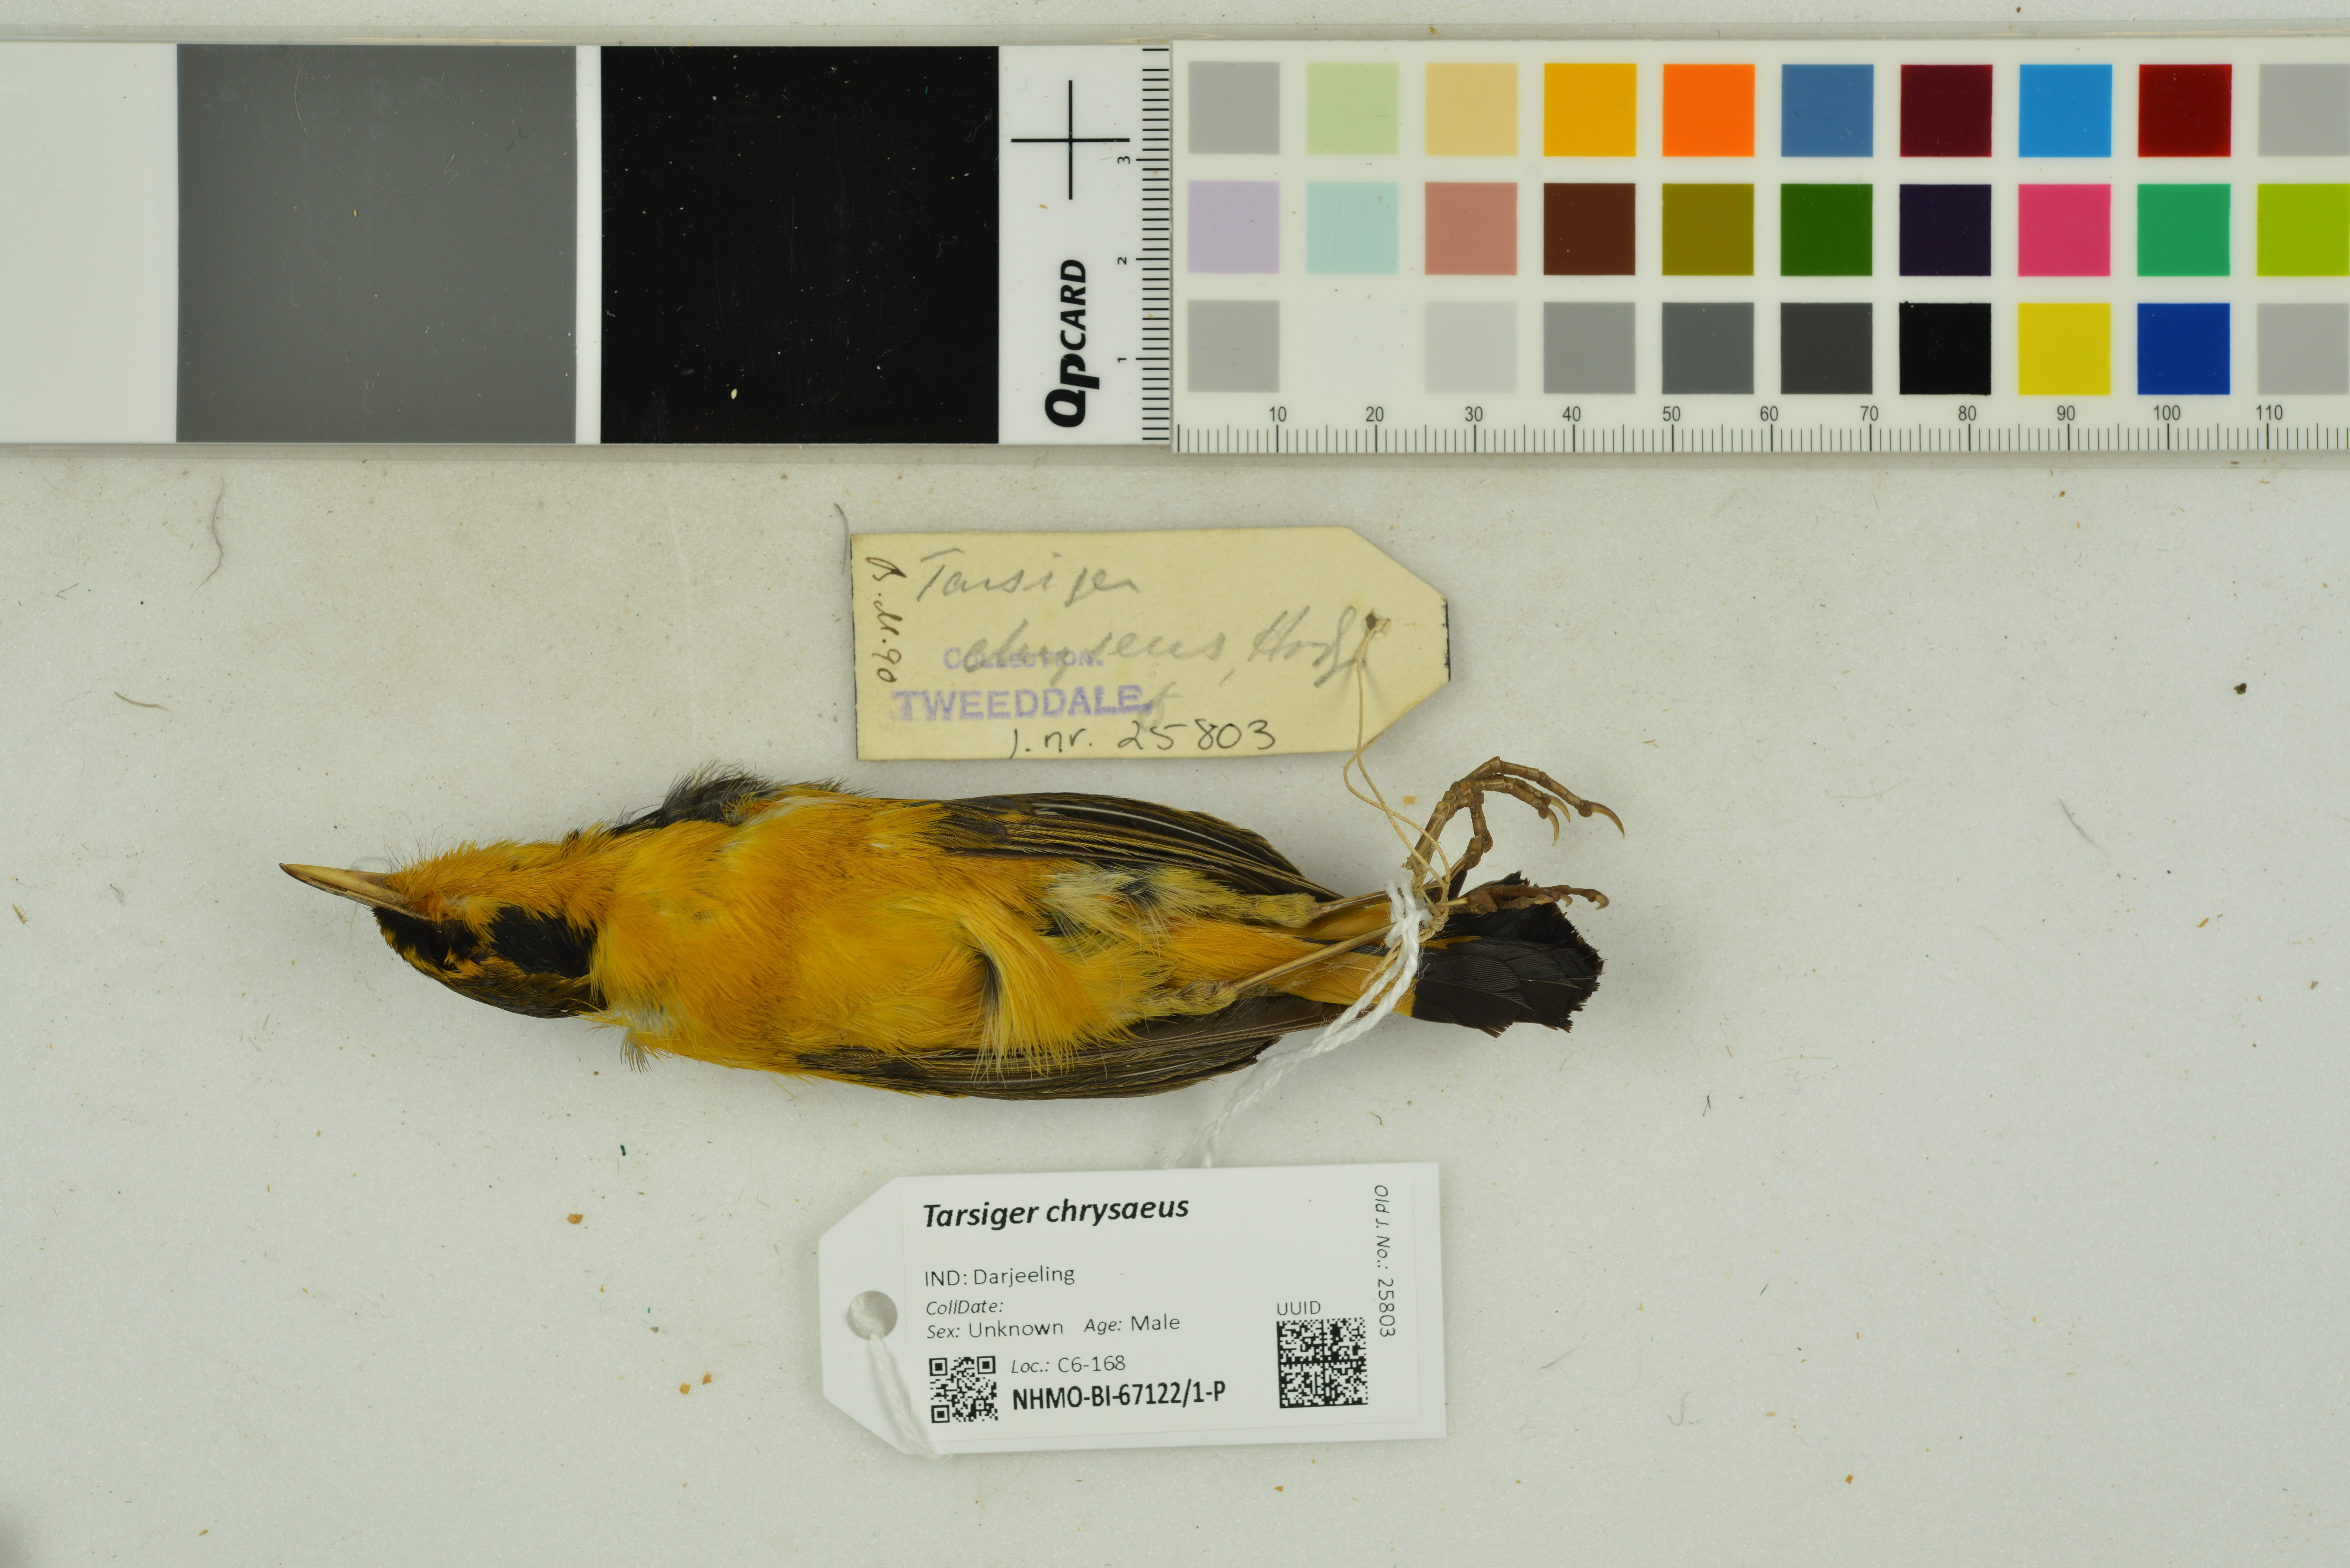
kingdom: Animalia
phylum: Chordata
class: Aves
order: Passeriformes
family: Muscicapidae
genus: Tarsiger
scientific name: Tarsiger chrysaeus
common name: Golden bush robin
